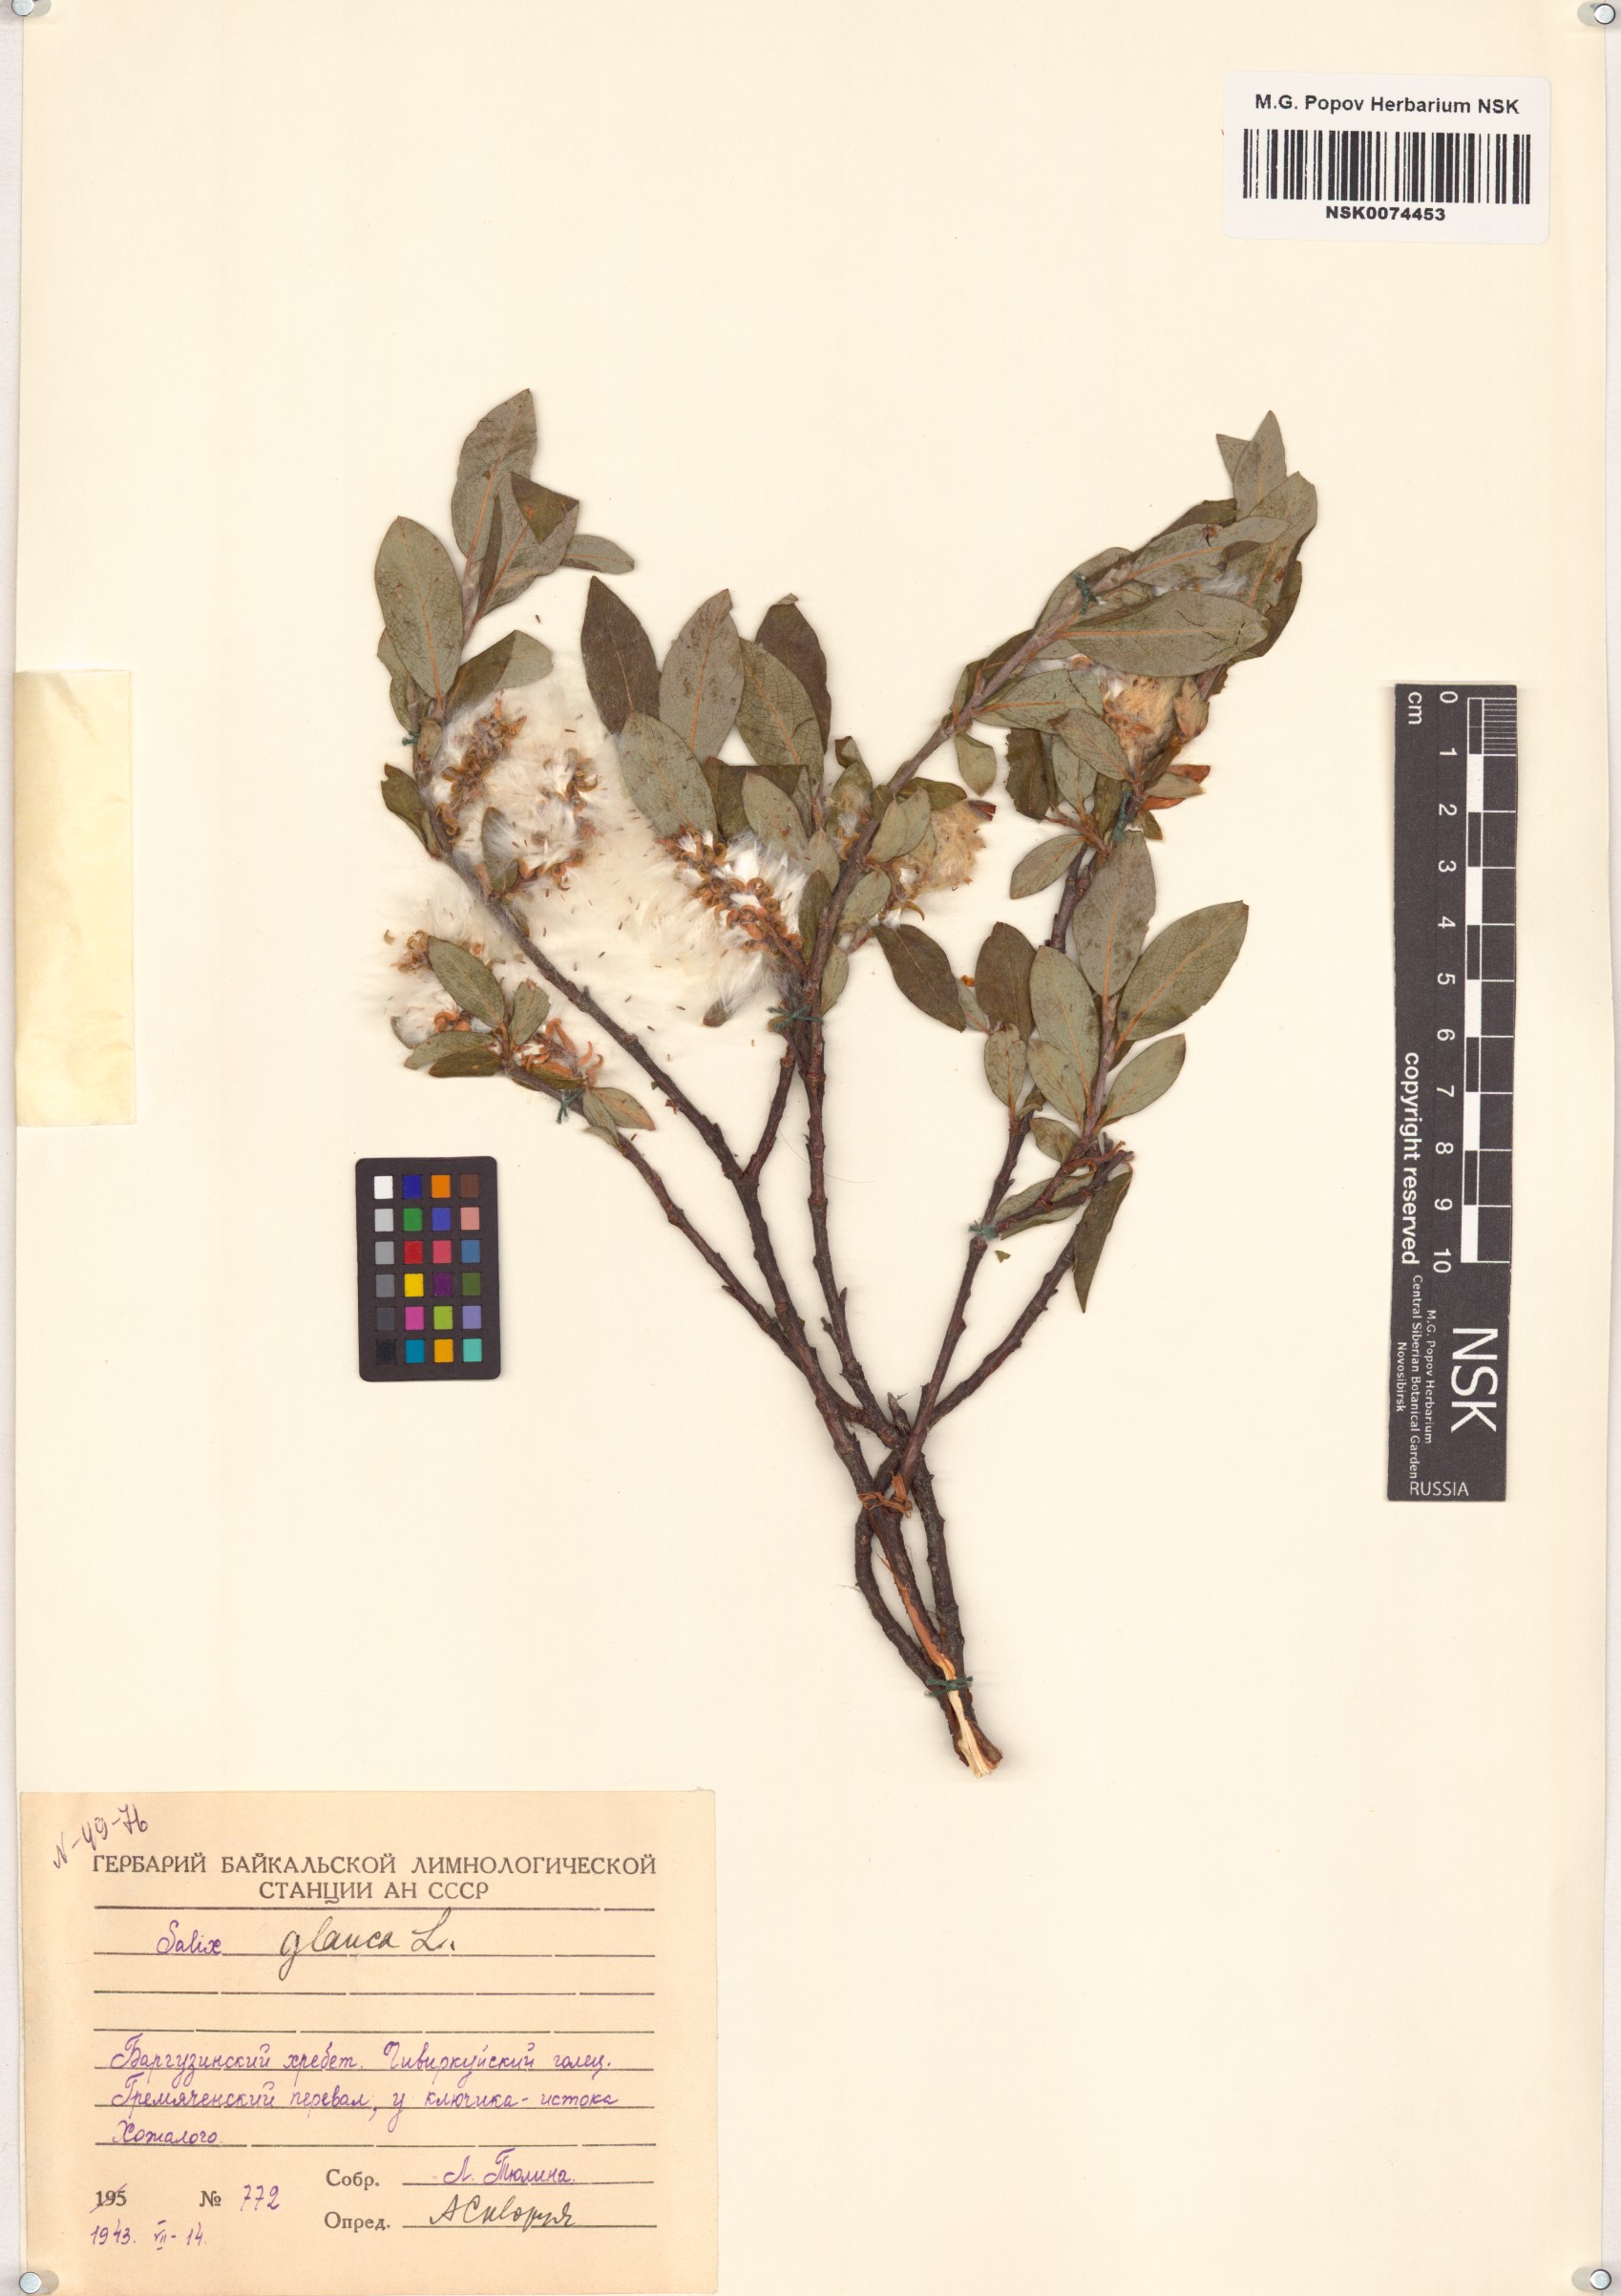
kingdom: Plantae
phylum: Tracheophyta
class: Magnoliopsida
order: Malpighiales
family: Salicaceae
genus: Salix
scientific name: Salix glauca
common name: Glaucous willow
